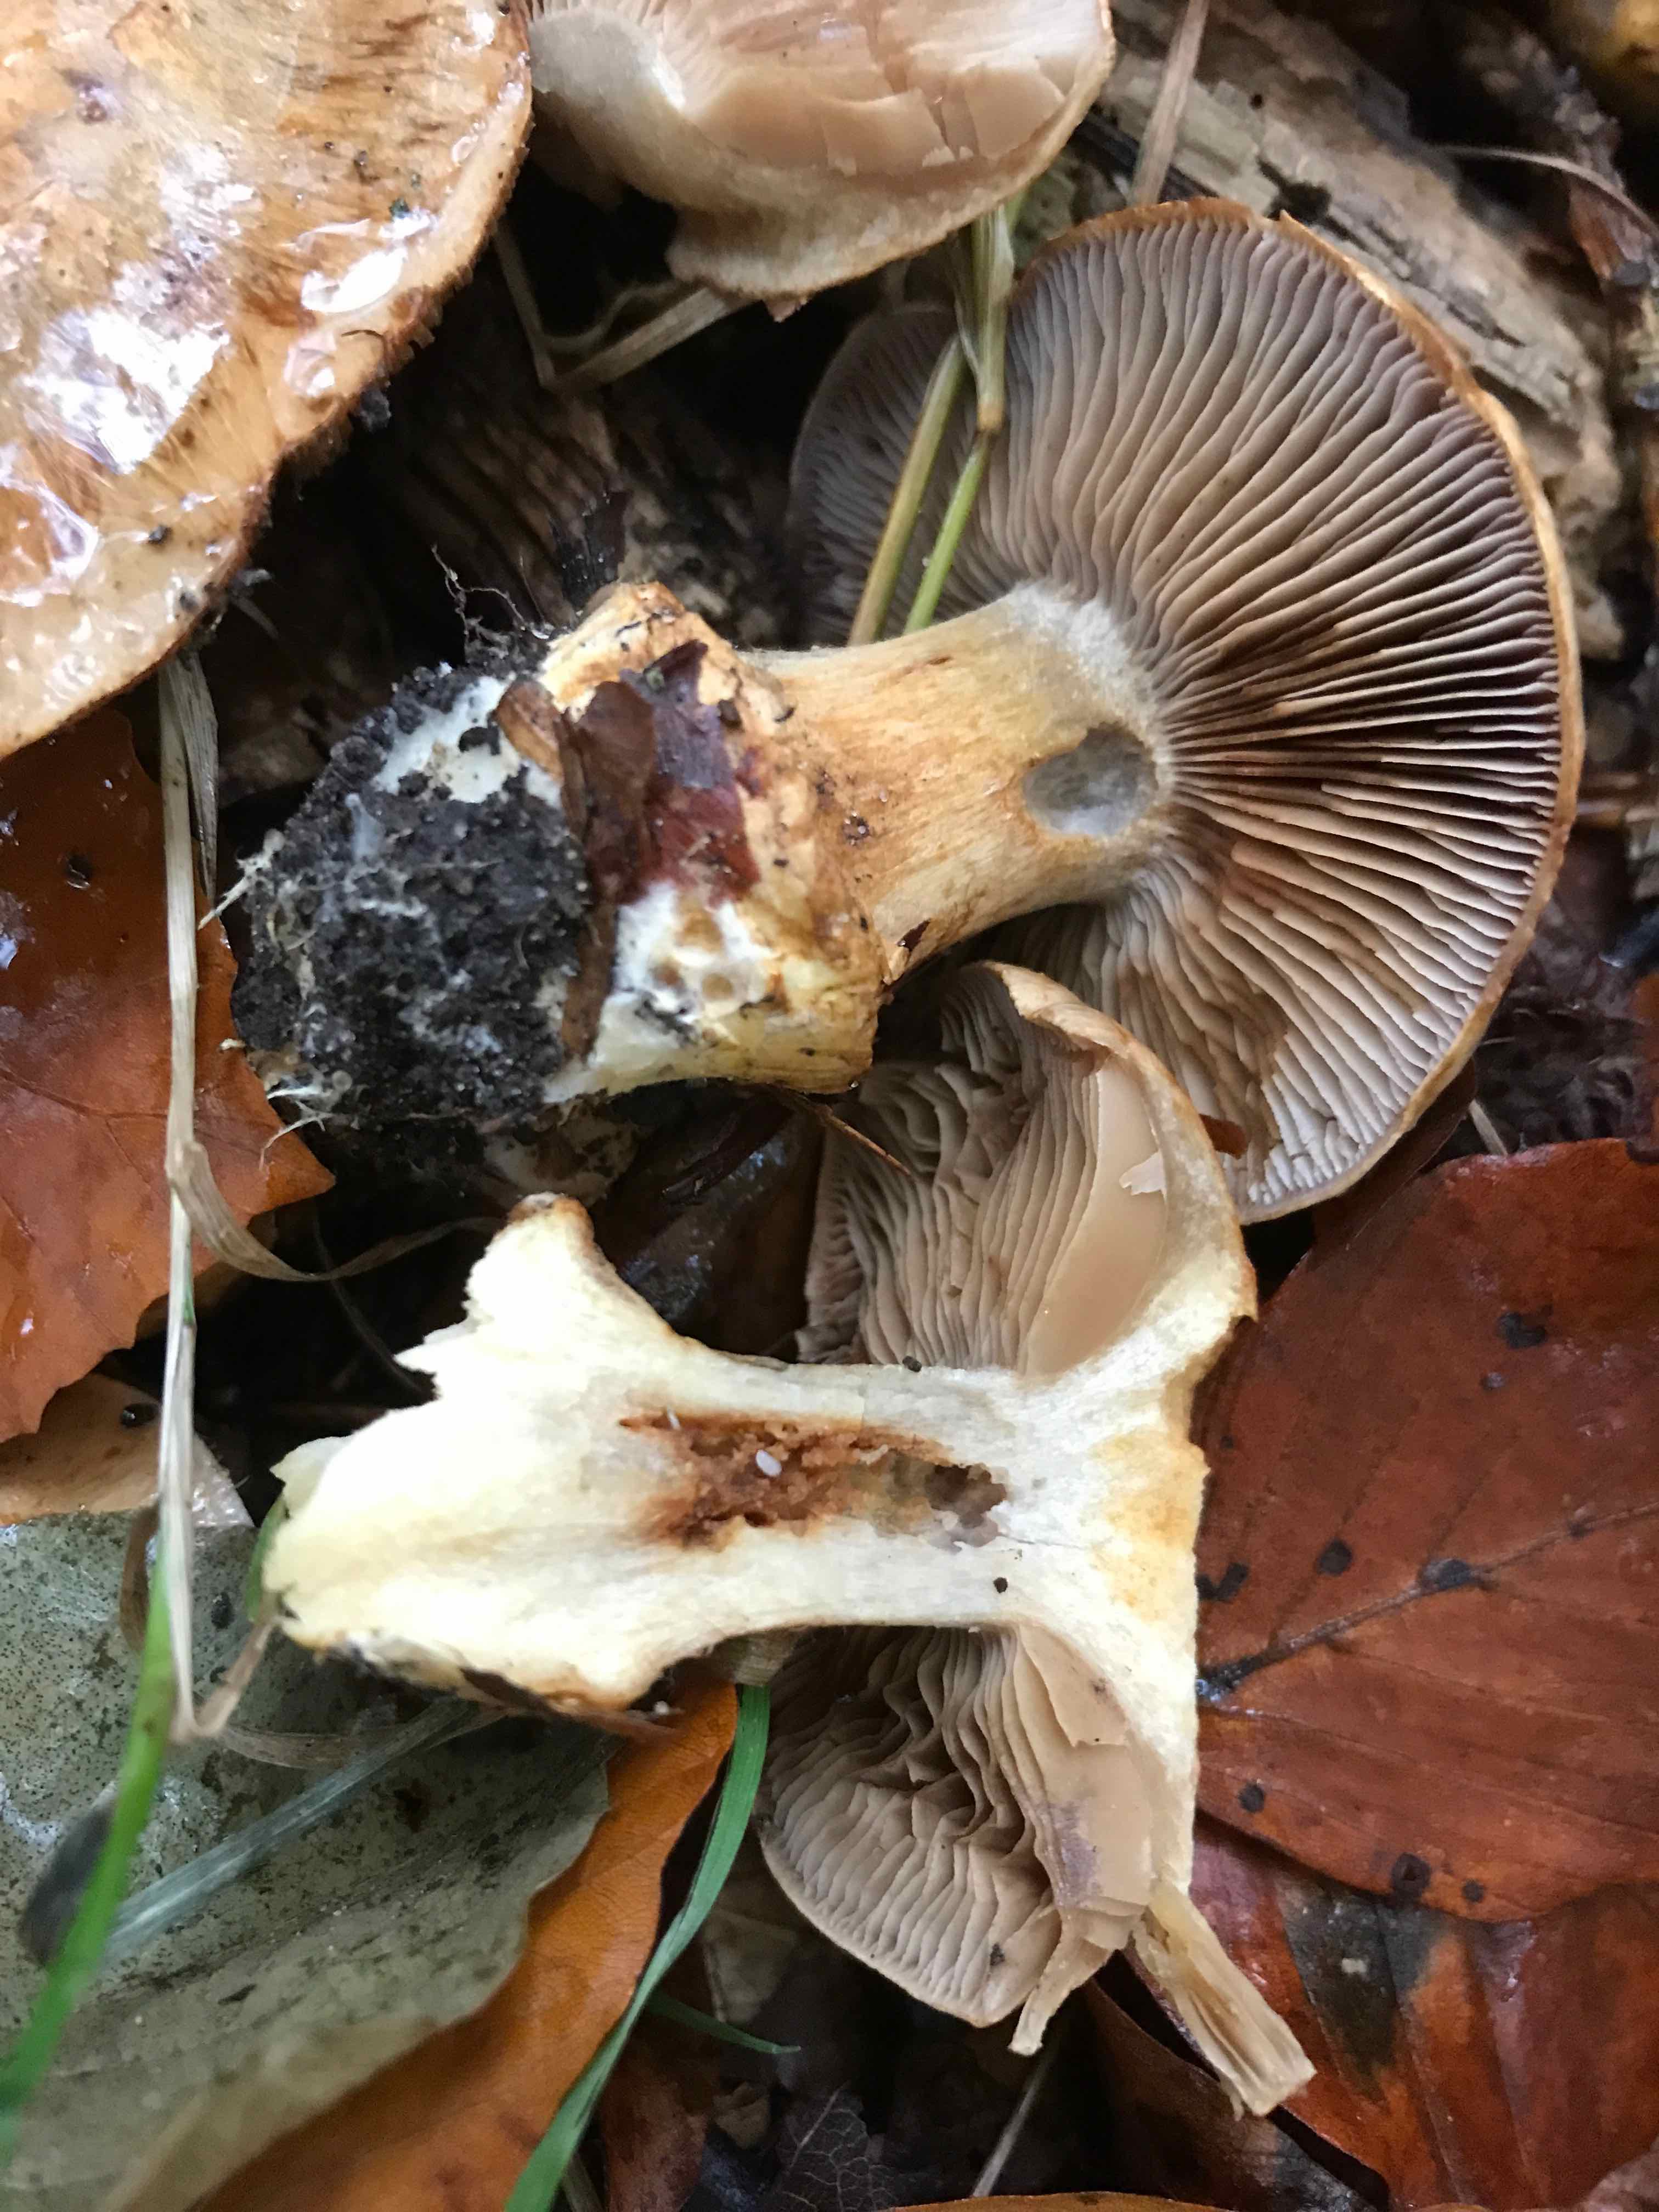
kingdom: Fungi
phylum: Basidiomycota
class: Agaricomycetes
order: Agaricales
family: Cortinariaceae
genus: Phlegmacium
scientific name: Phlegmacium luhmannii
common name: musegrå slørhat
